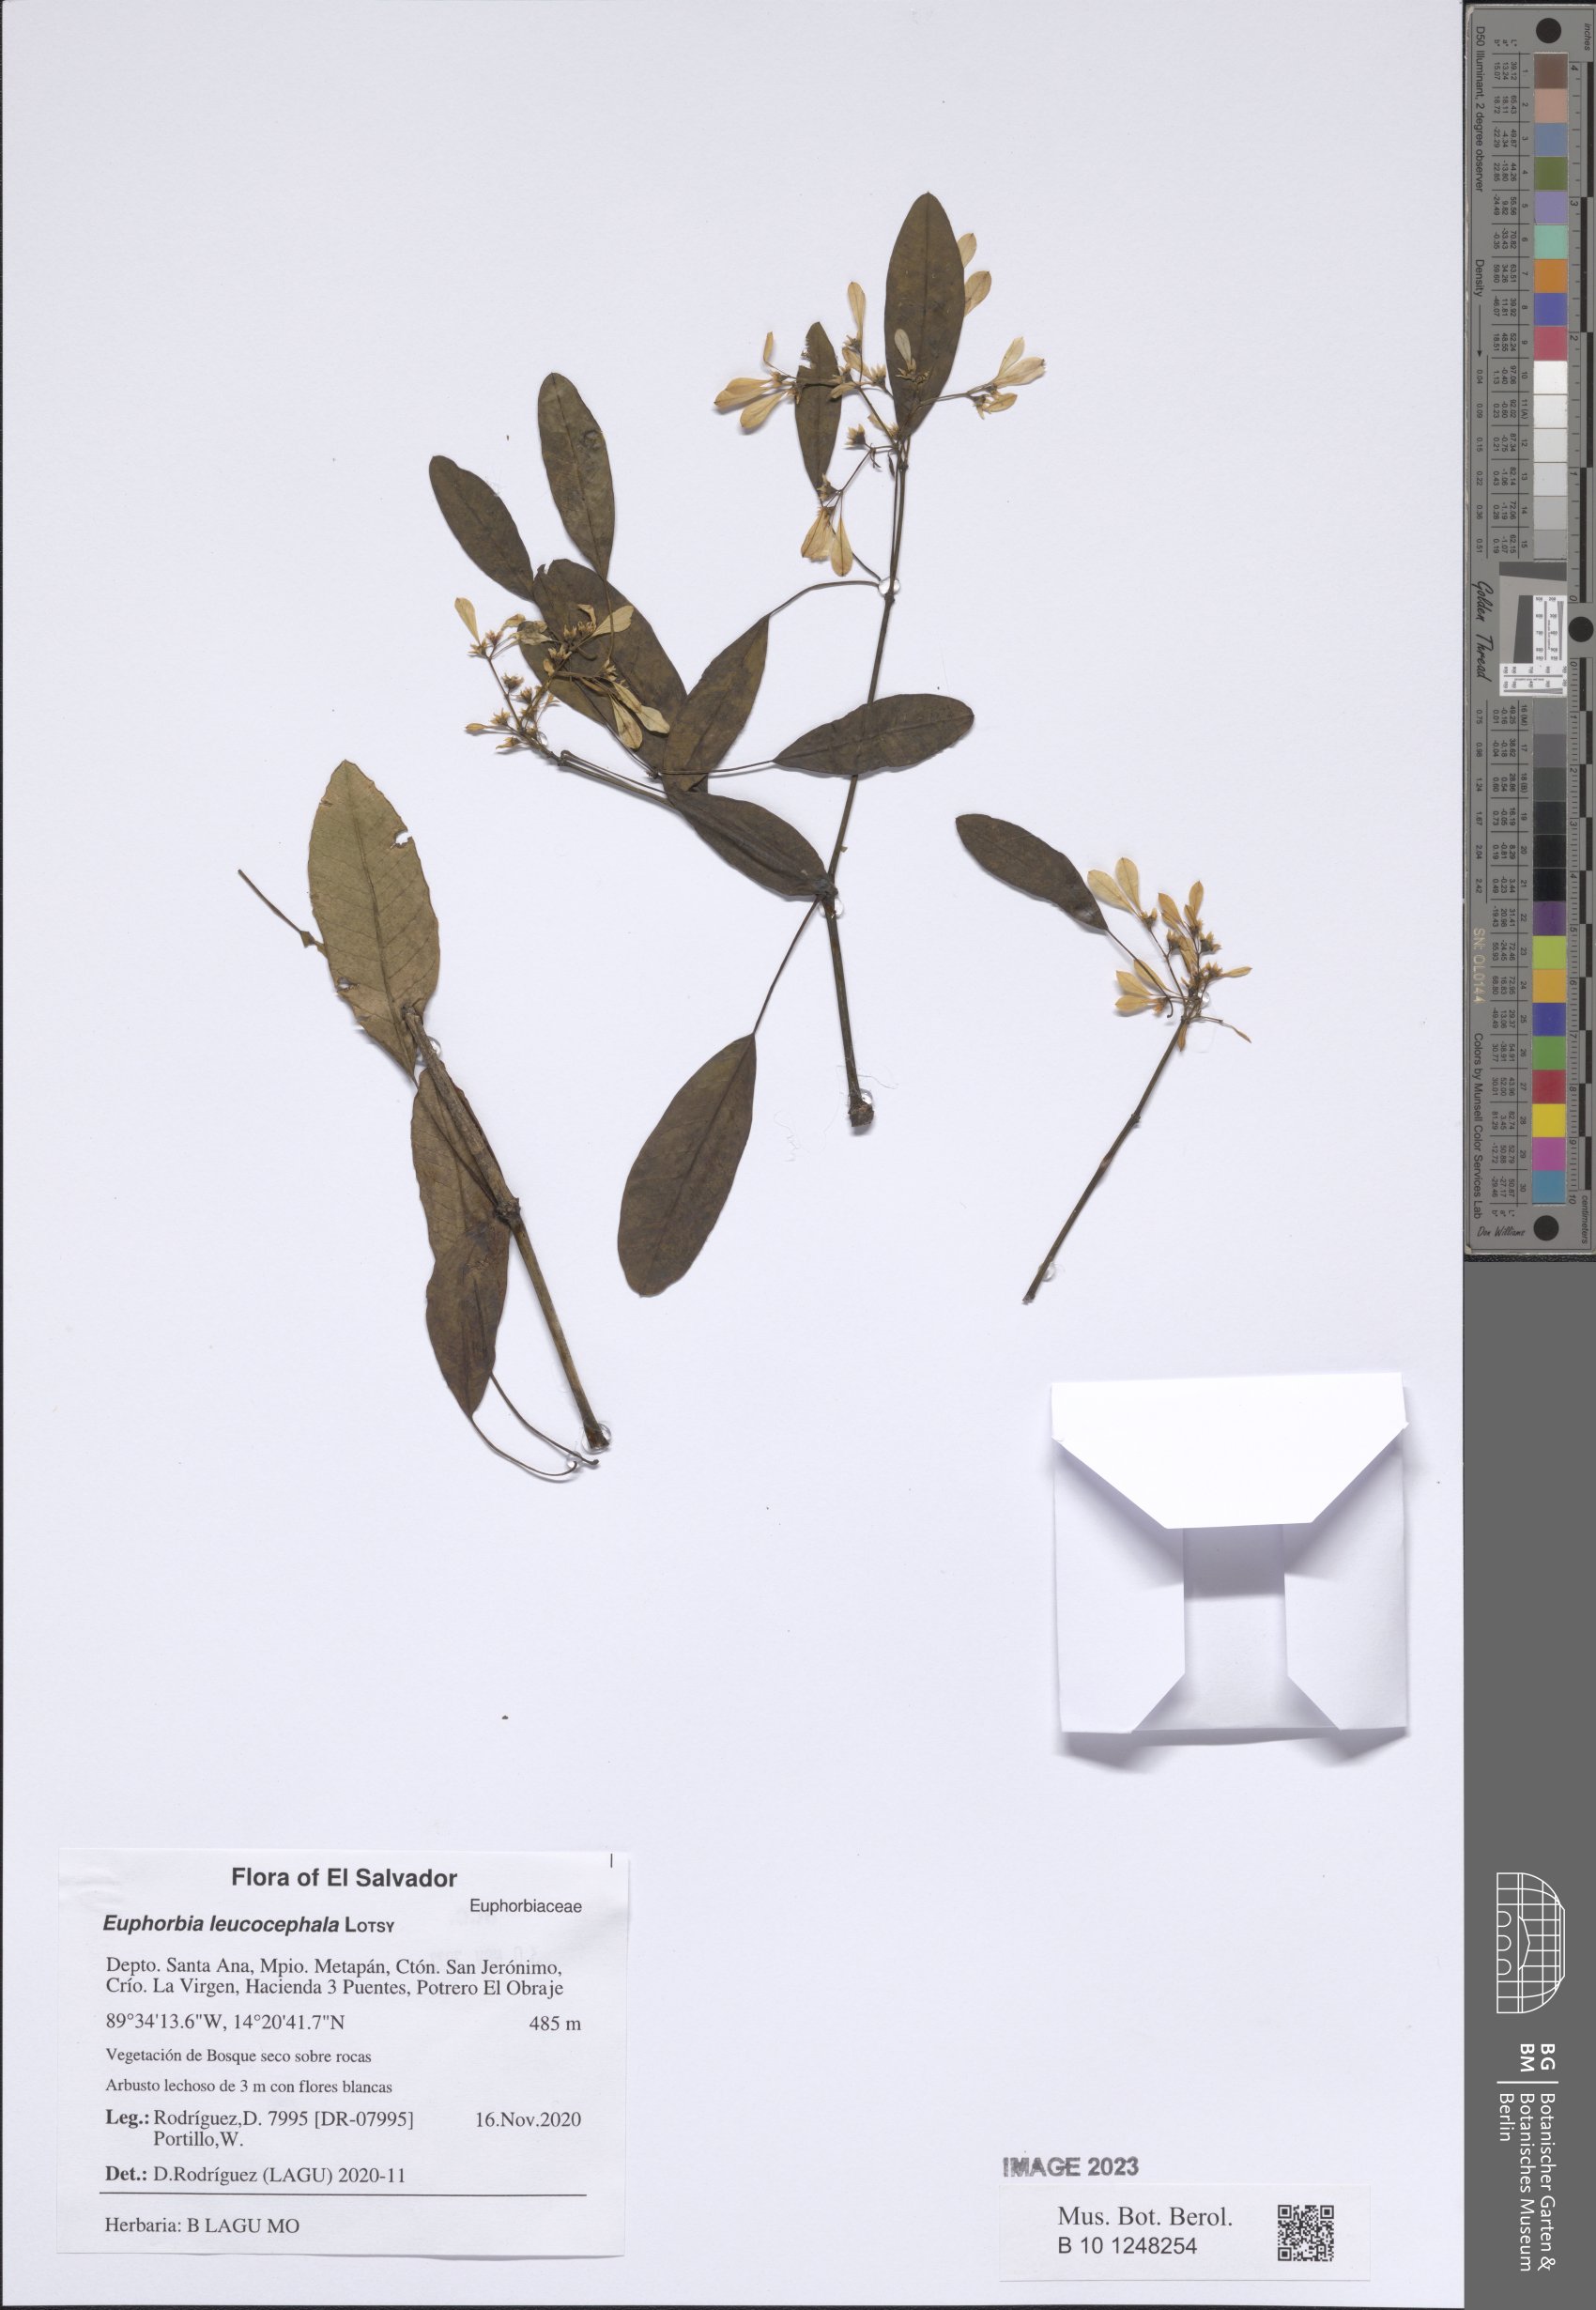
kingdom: Plantae
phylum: Tracheophyta
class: Magnoliopsida
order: Malpighiales
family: Euphorbiaceae
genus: Euphorbia
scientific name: Euphorbia leucocephala
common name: Pascuita
